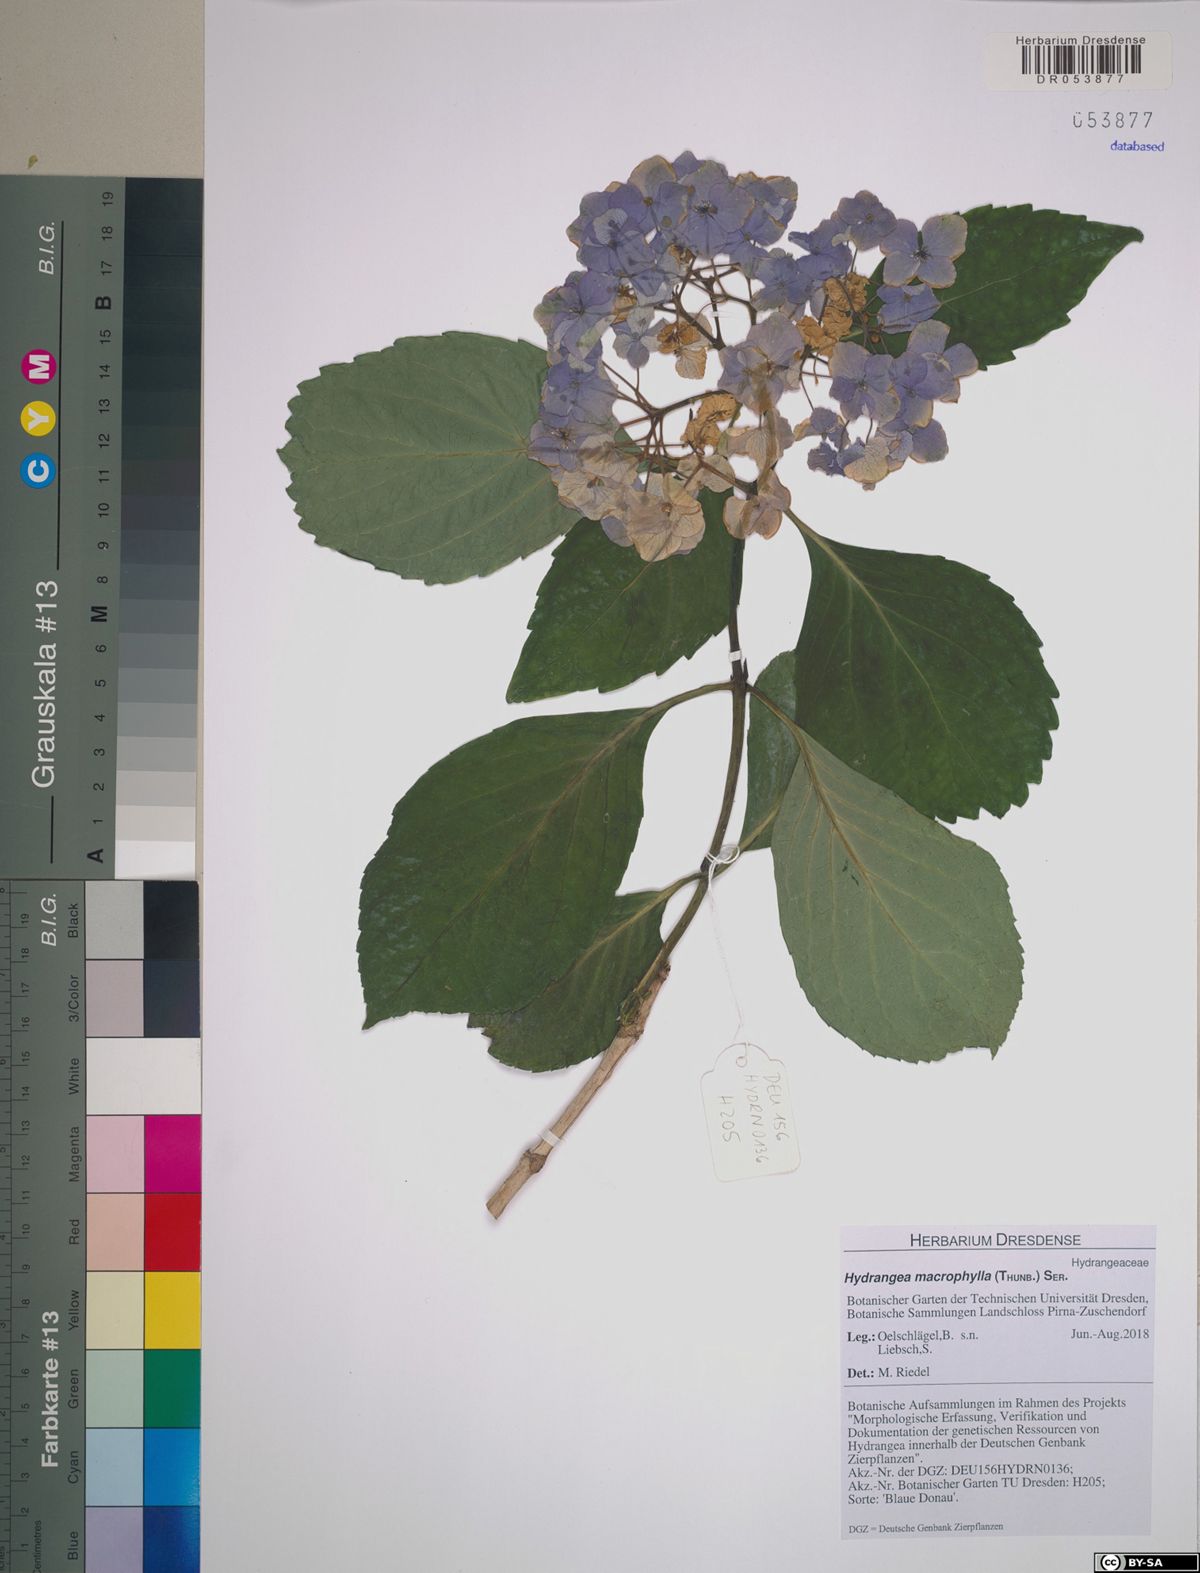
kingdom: Plantae
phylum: Tracheophyta
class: Magnoliopsida
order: Cornales
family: Hydrangeaceae
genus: Hydrangea
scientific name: Hydrangea macrophylla
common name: Hydrangea
